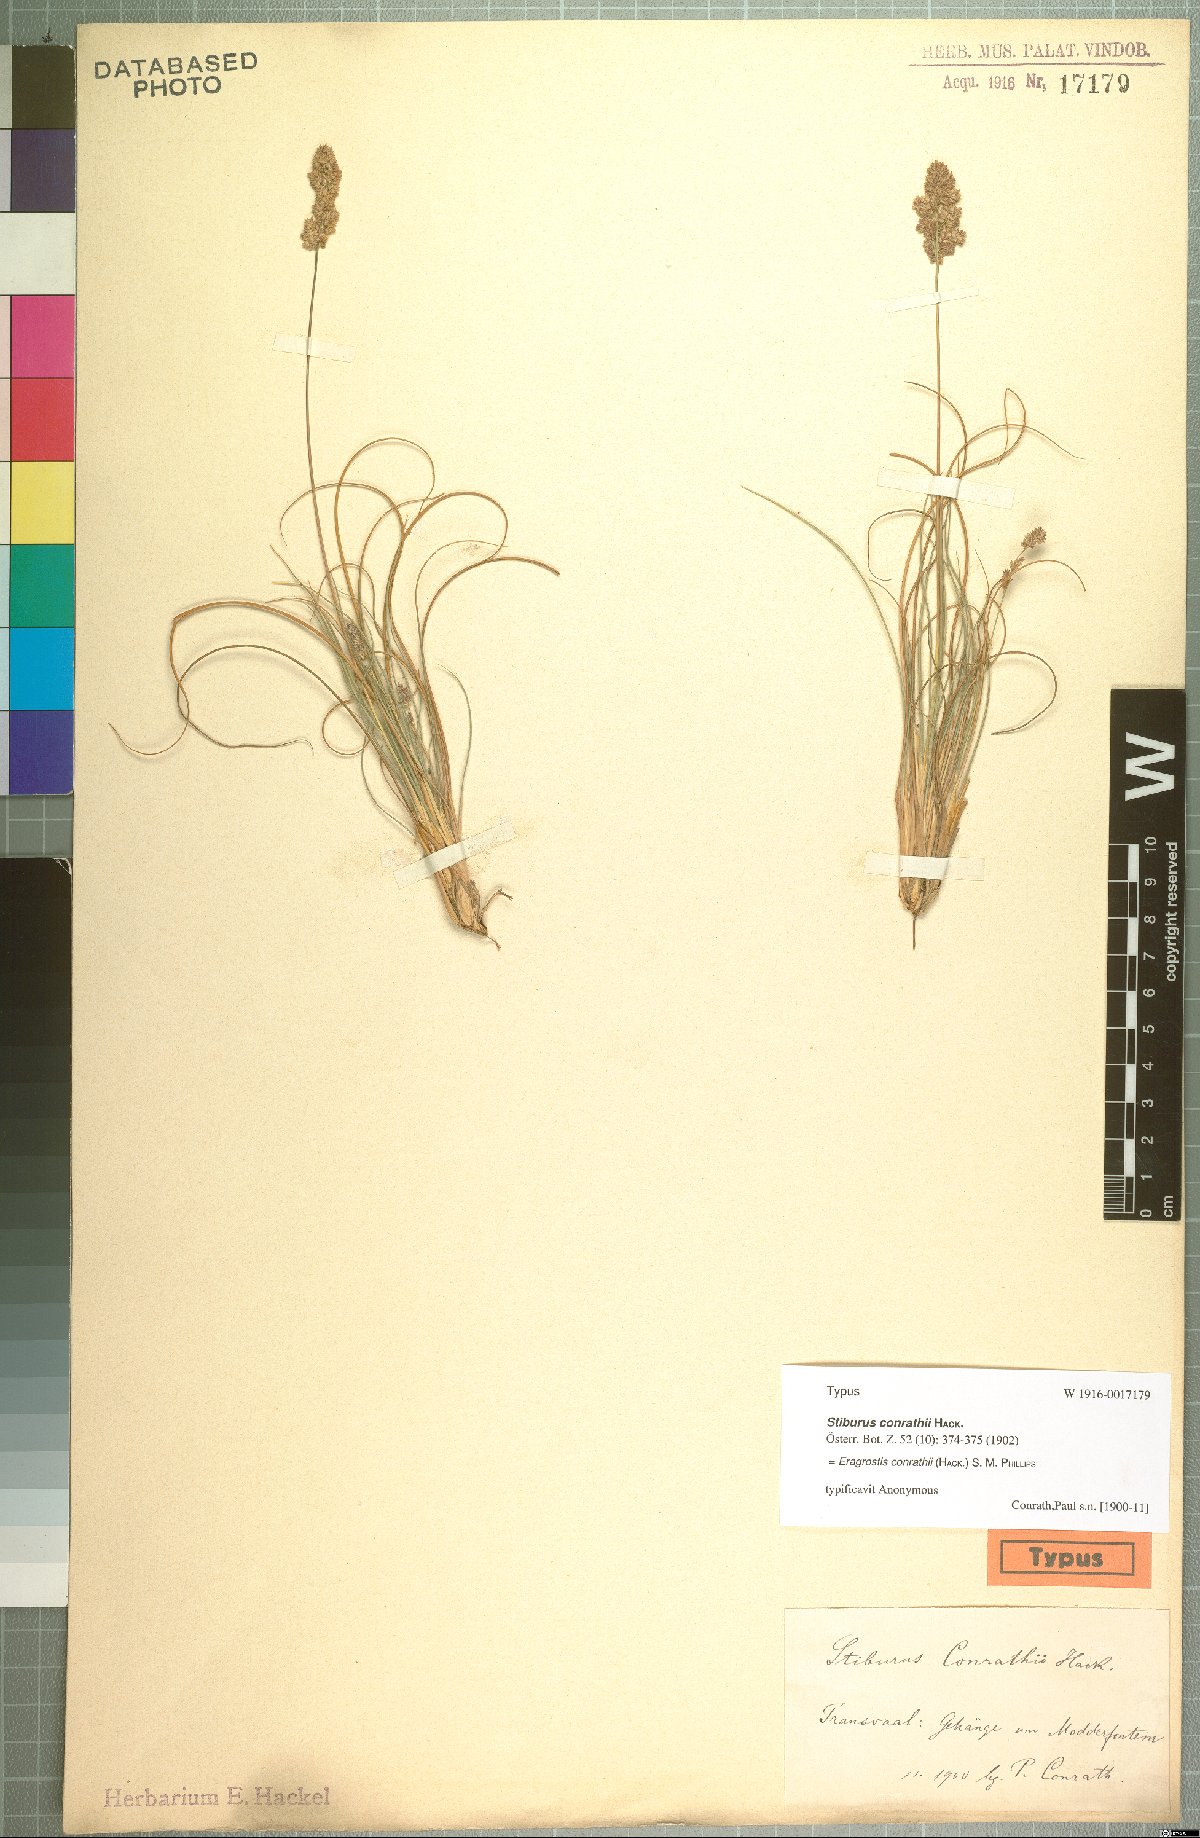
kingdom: Plantae
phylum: Tracheophyta
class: Liliopsida
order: Poales
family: Poaceae
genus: Stiburus
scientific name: Stiburus conrathii
